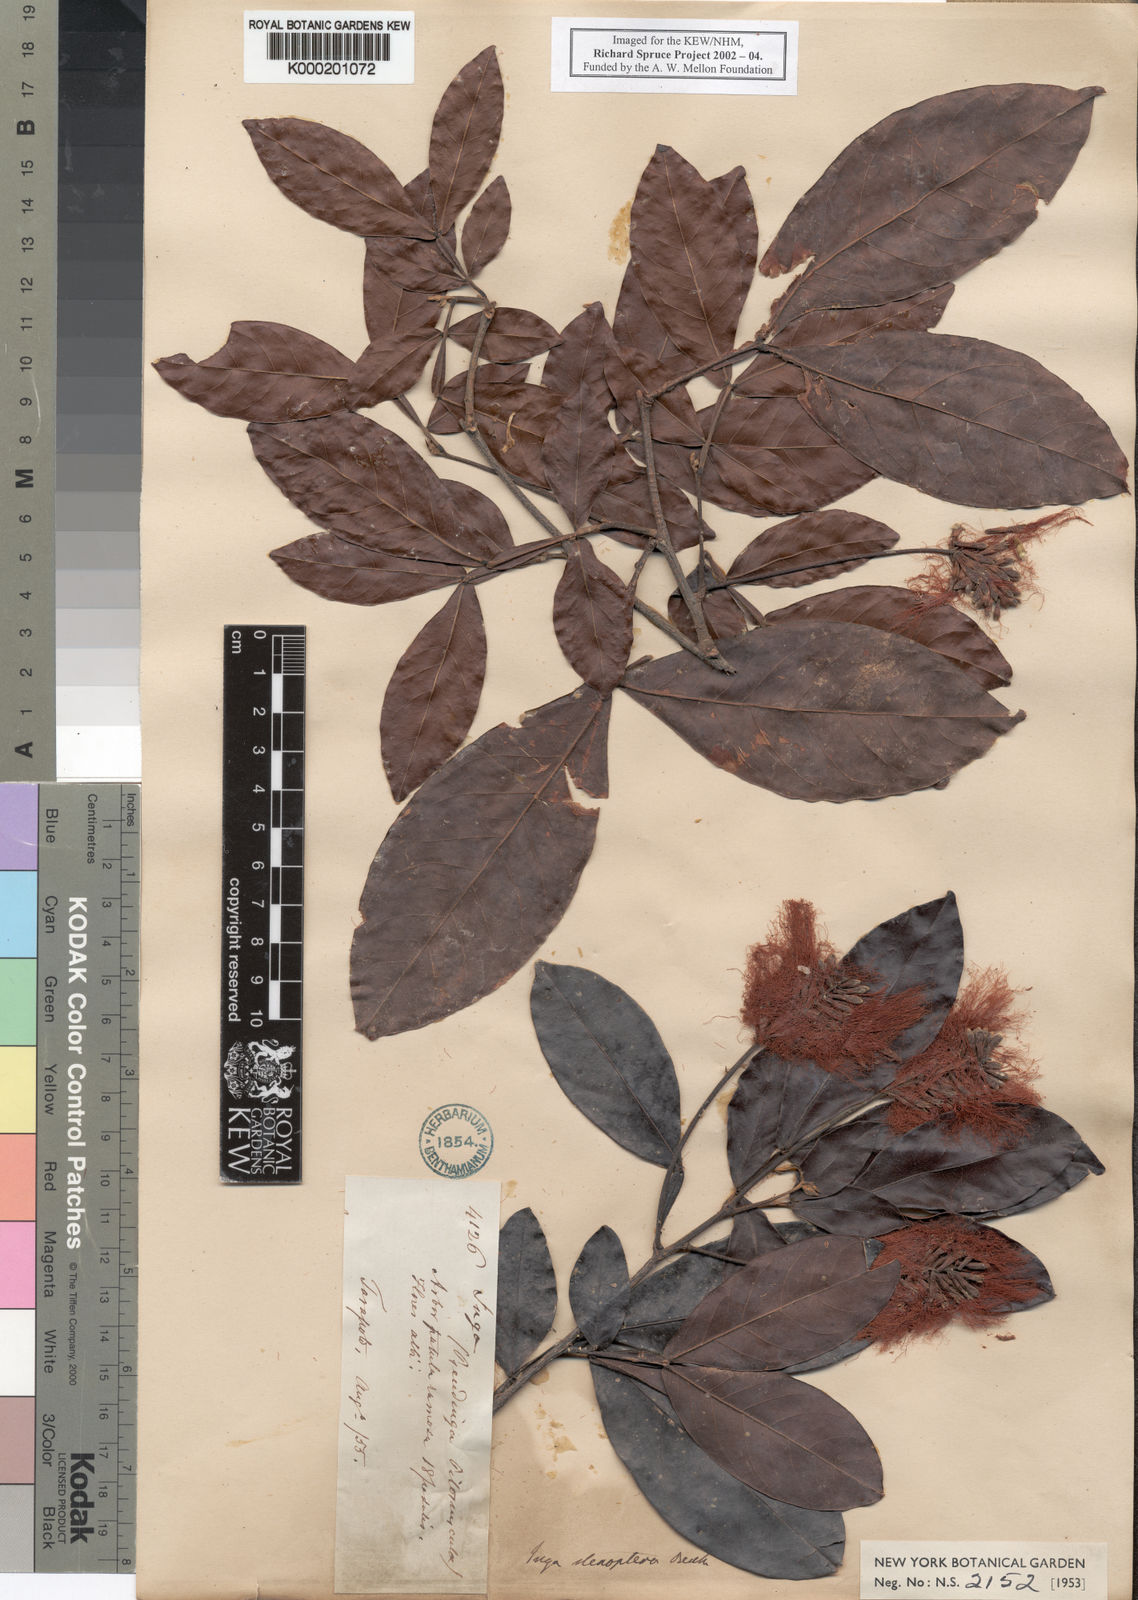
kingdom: Plantae
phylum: Tracheophyta
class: Magnoliopsida
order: Fabales
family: Fabaceae
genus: Inga
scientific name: Inga tenuicalyx
